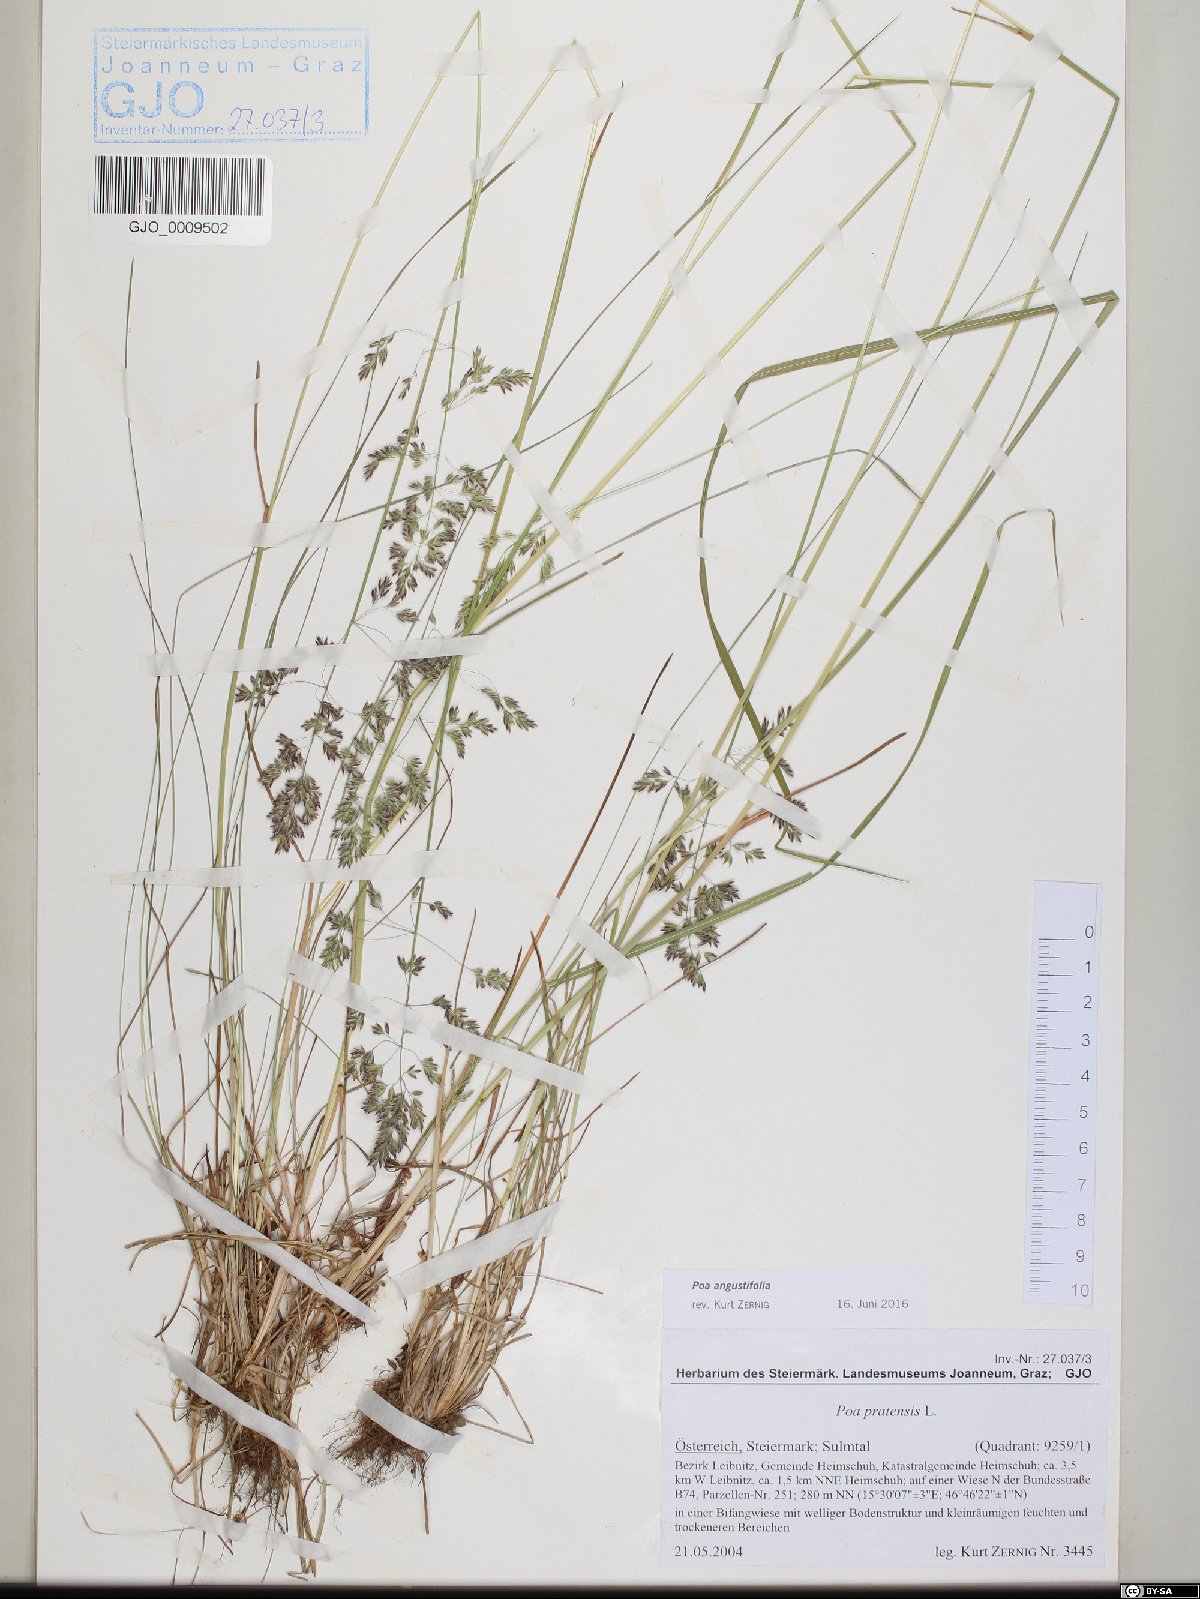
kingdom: Plantae
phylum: Tracheophyta
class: Liliopsida
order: Poales
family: Poaceae
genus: Poa
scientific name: Poa angustifolia
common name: Narrow-leaved meadow-grass
